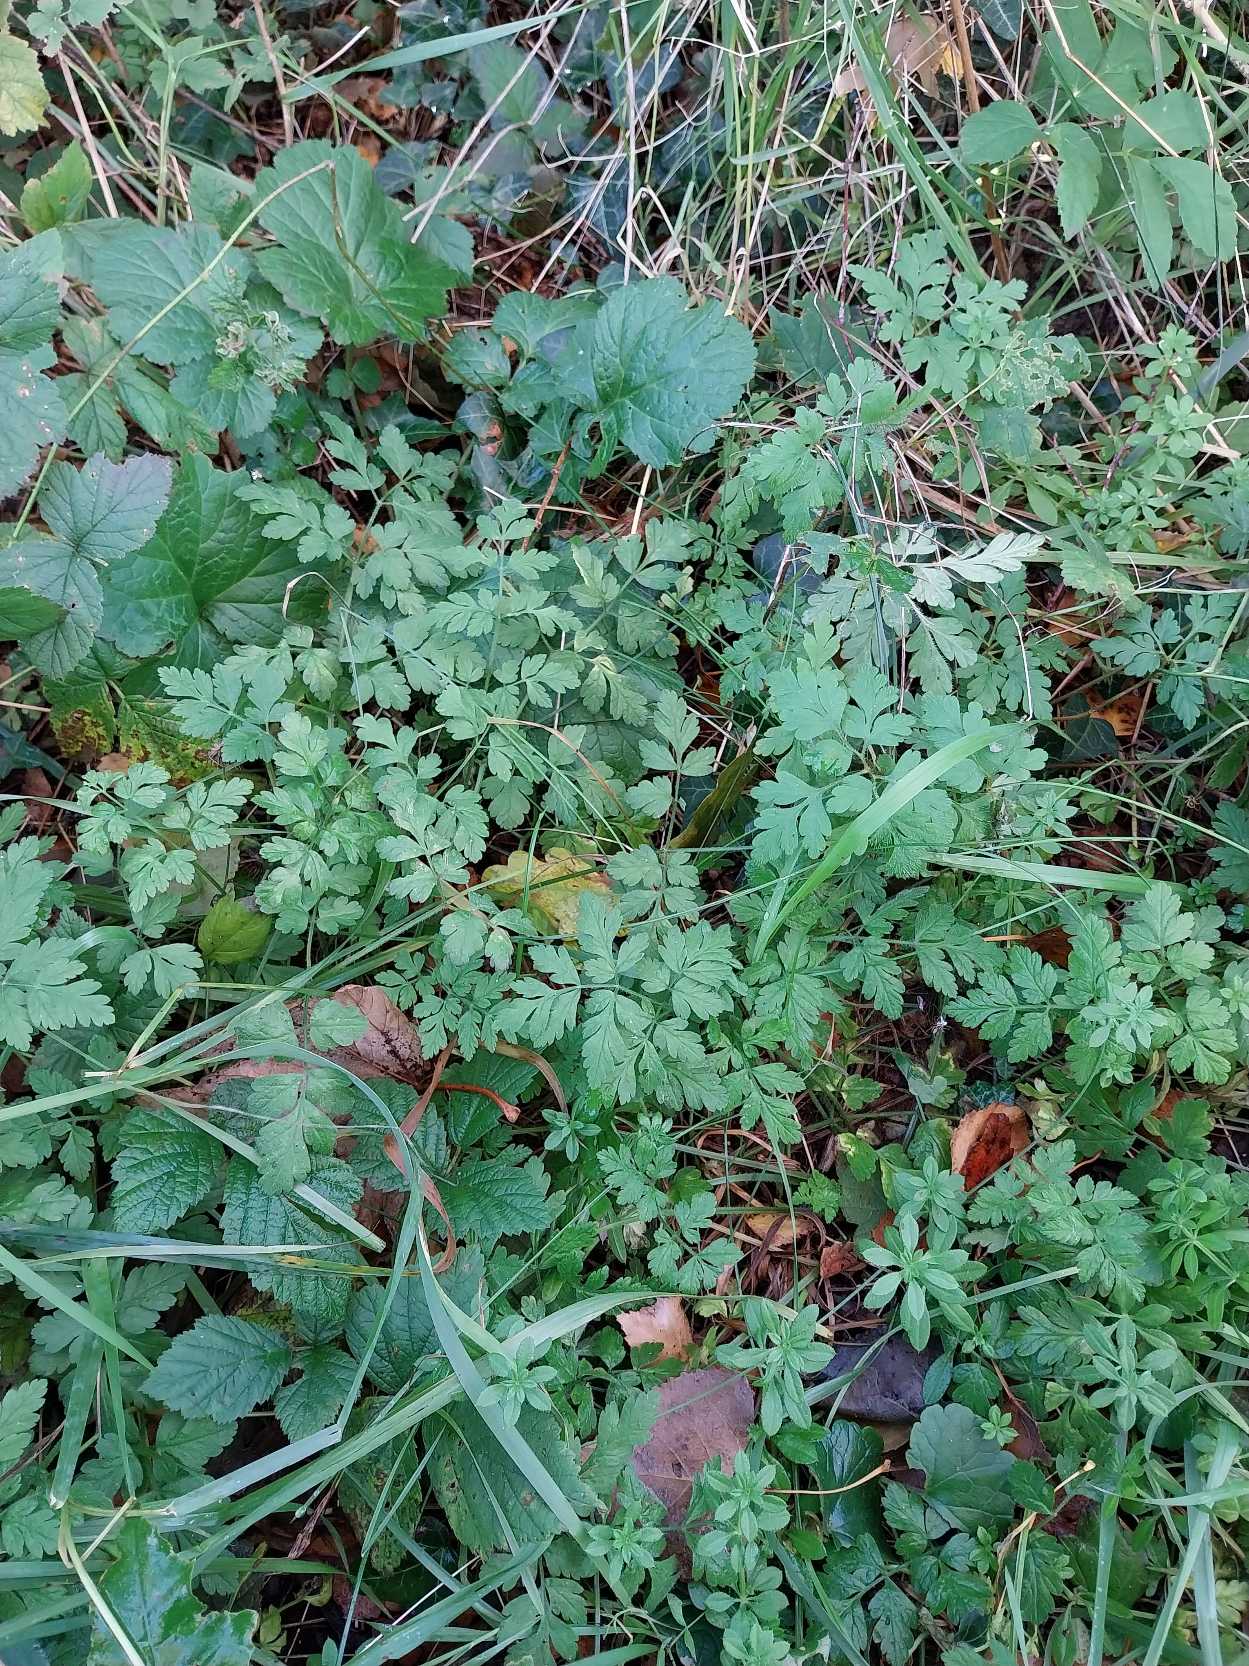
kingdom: Plantae
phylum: Tracheophyta
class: Magnoliopsida
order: Apiales
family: Apiaceae
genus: Chaerophyllum
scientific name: Chaerophyllum temulum
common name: Almindelig hulsvøb
